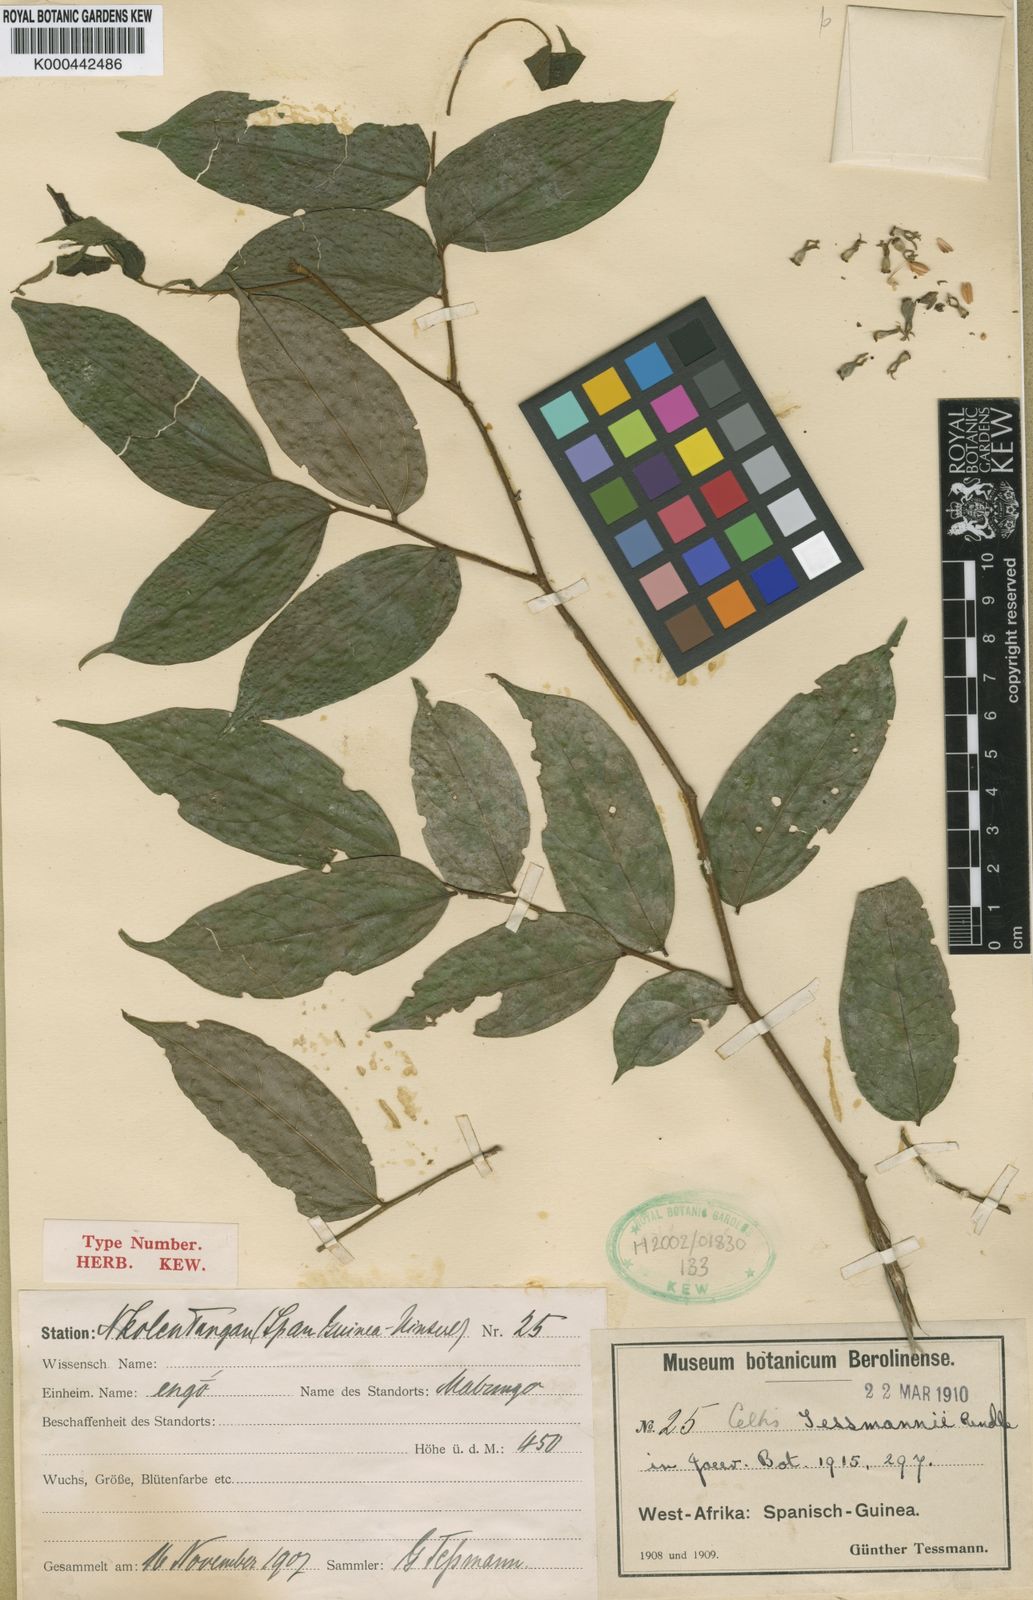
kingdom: Plantae
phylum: Tracheophyta
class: Magnoliopsida
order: Rosales
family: Cannabaceae
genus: Celtis
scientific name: Celtis tessmannii
